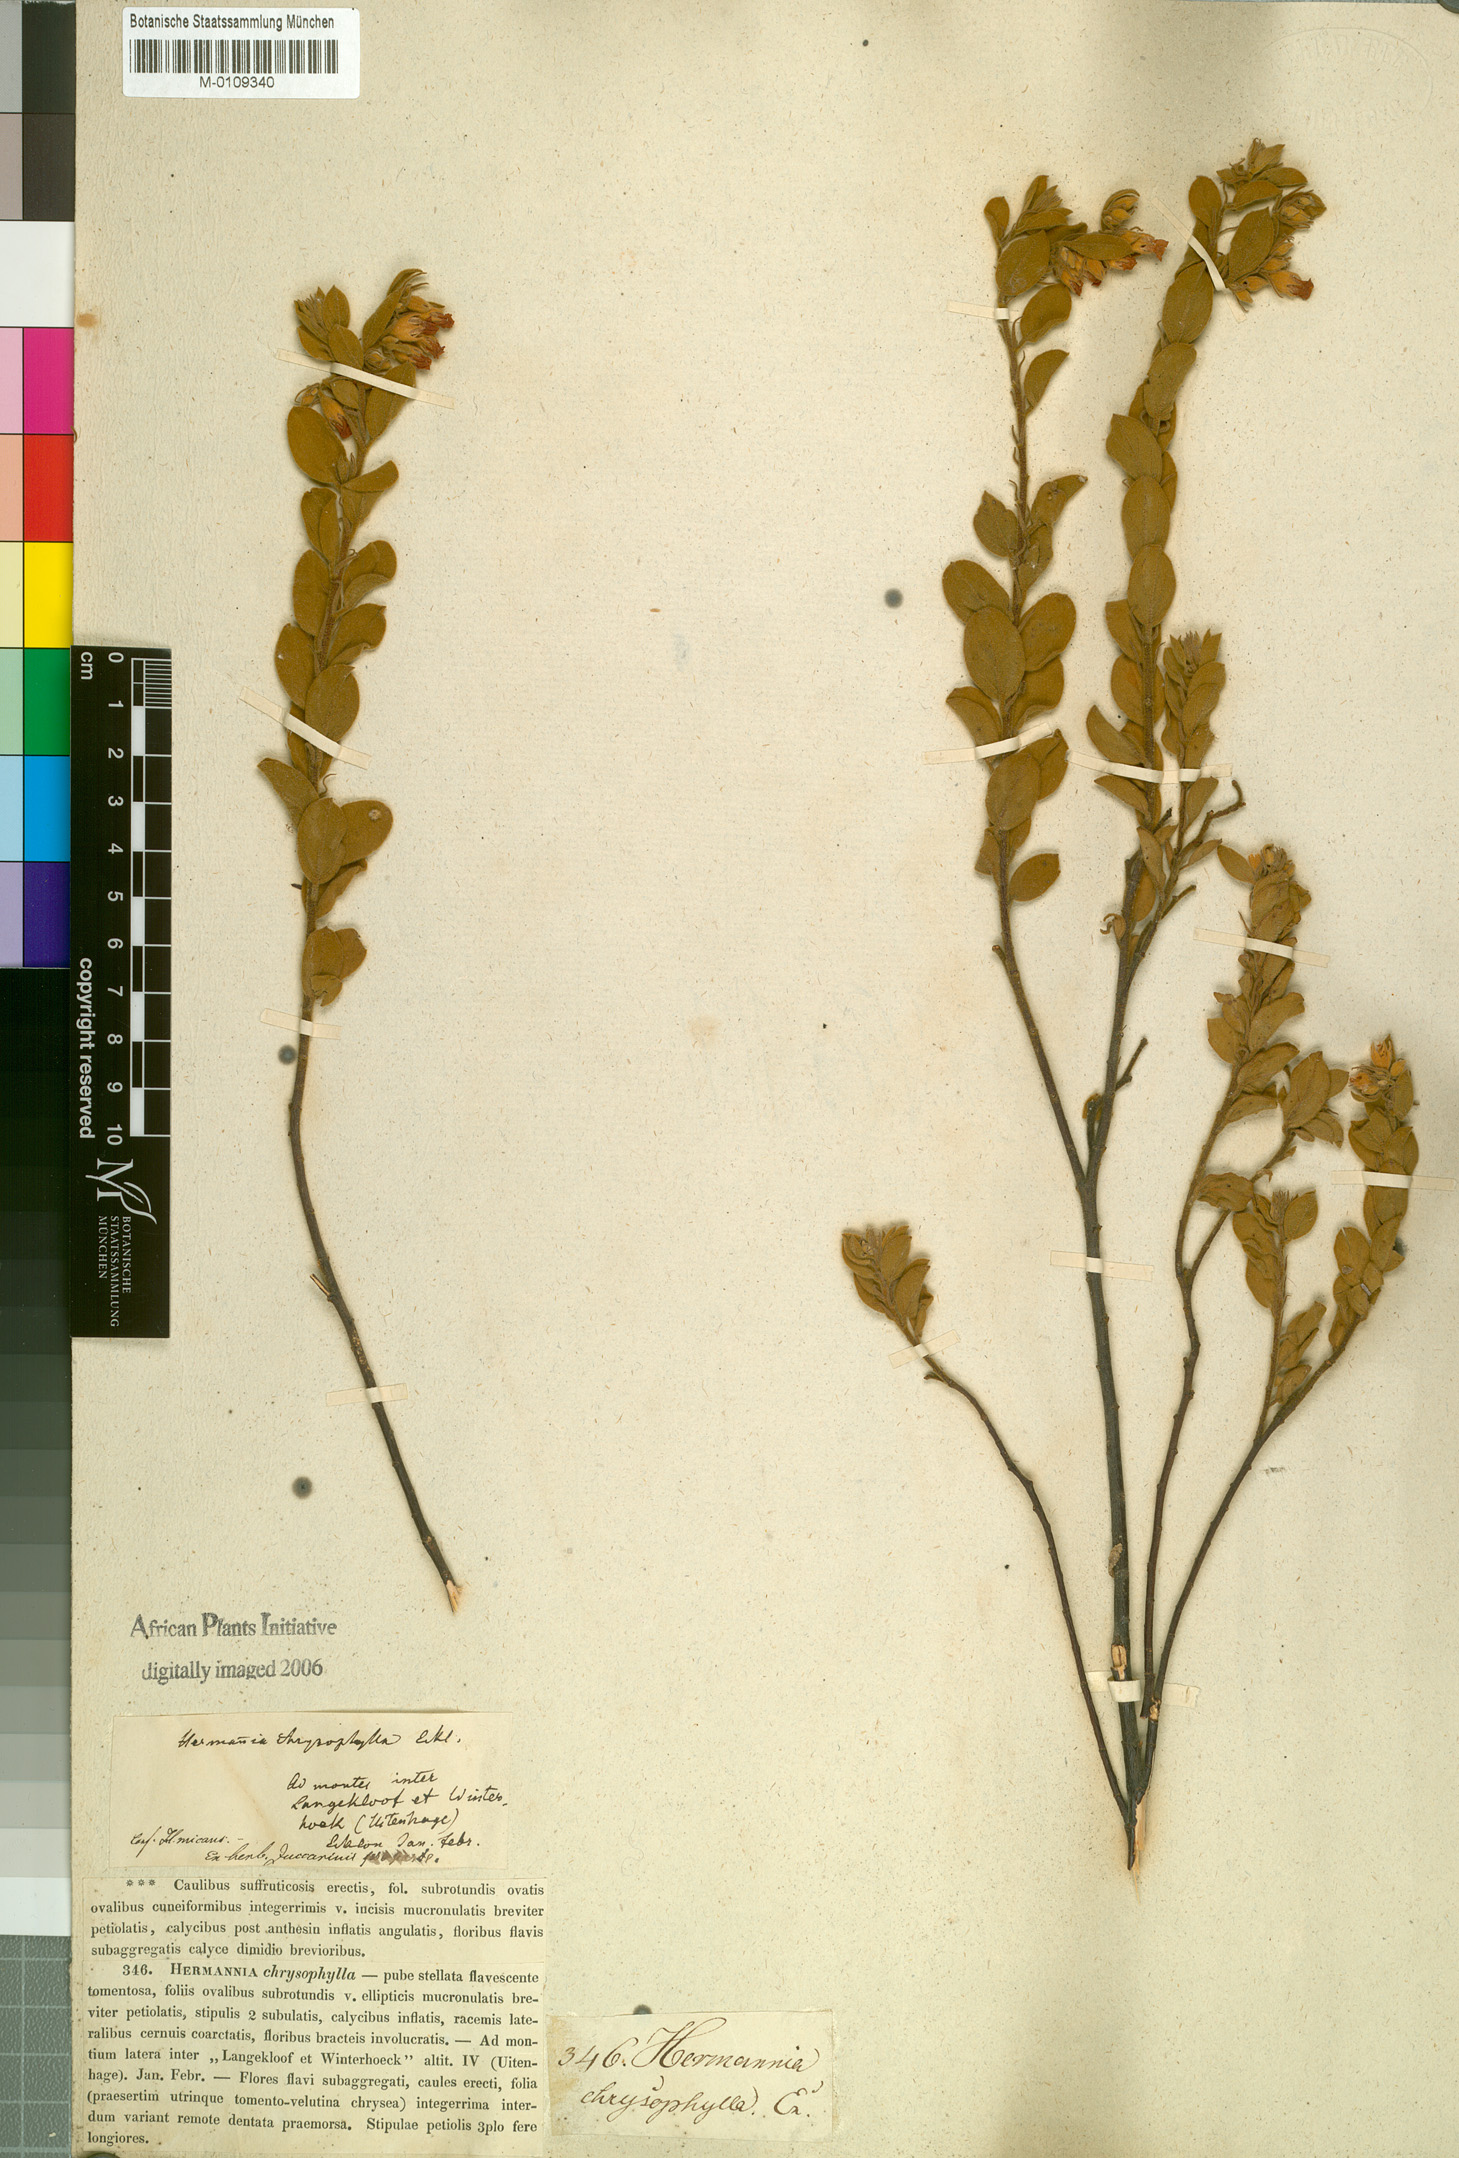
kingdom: Plantae
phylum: Tracheophyta
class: Magnoliopsida
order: Malvales
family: Malvaceae
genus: Hermannia
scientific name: Hermannia involucrata
